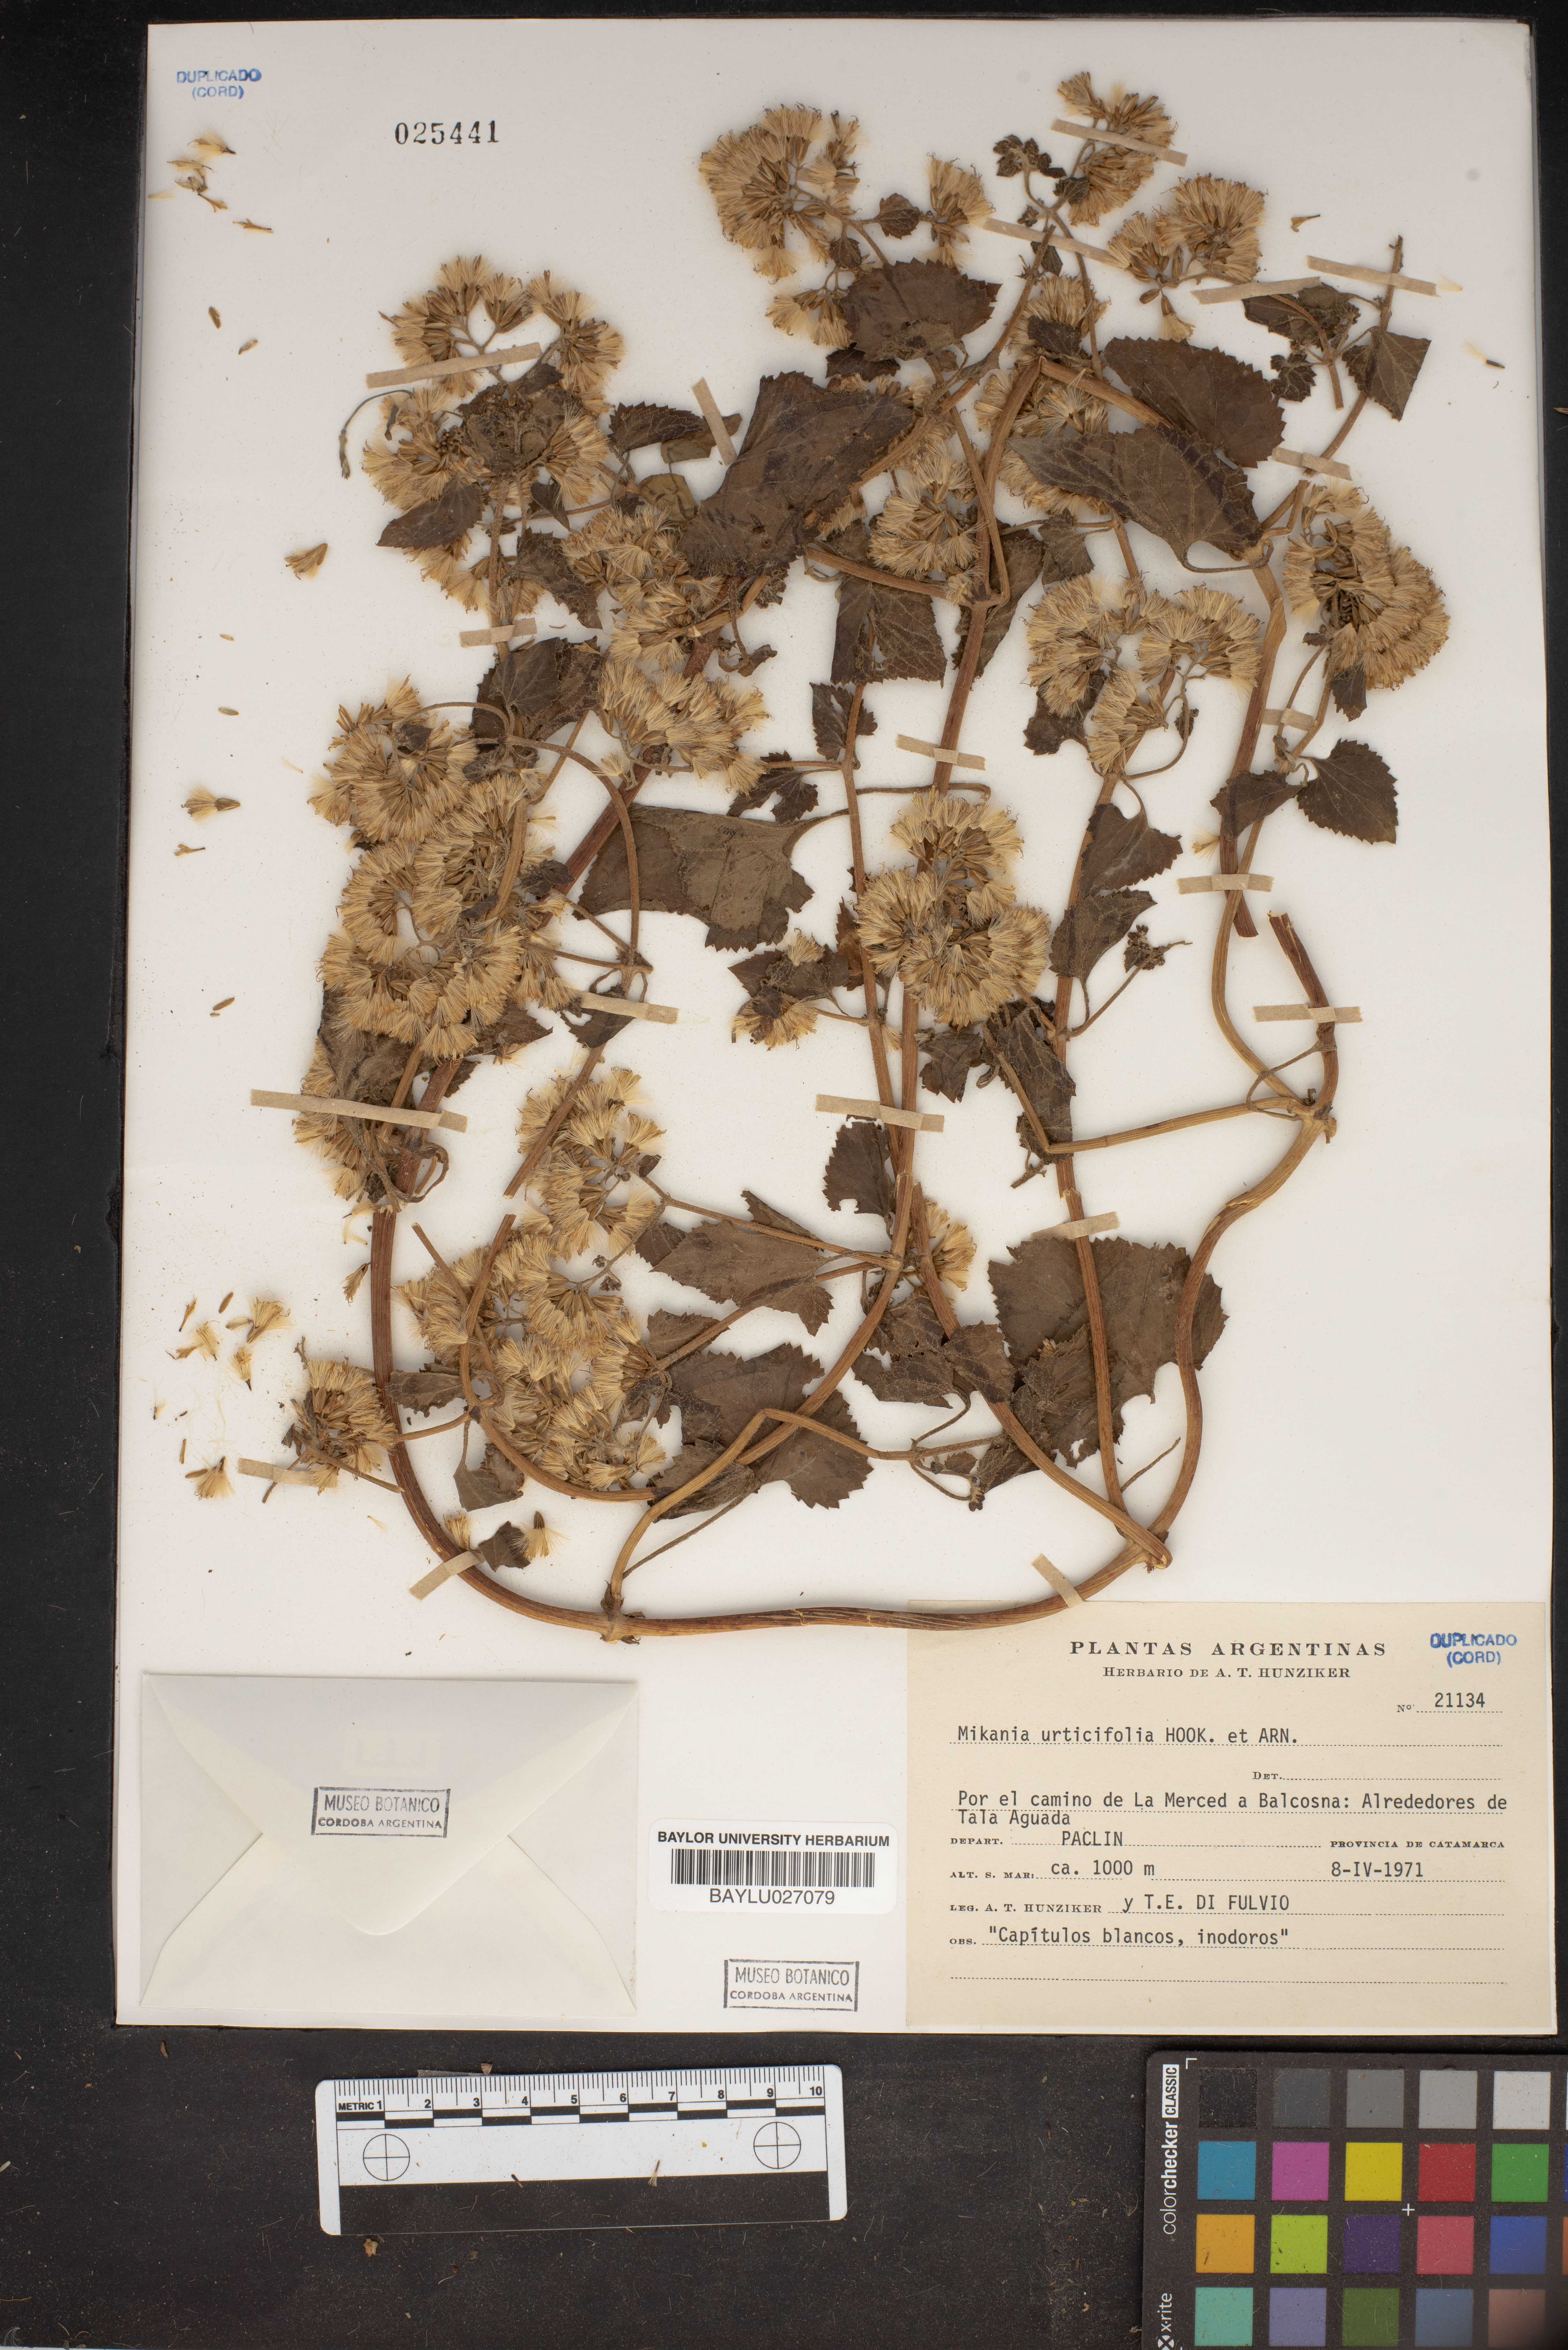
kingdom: Plantae
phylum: Tracheophyta
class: Magnoliopsida
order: Asterales
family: Asteraceae
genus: Mikania
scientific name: Mikania urticifolia
